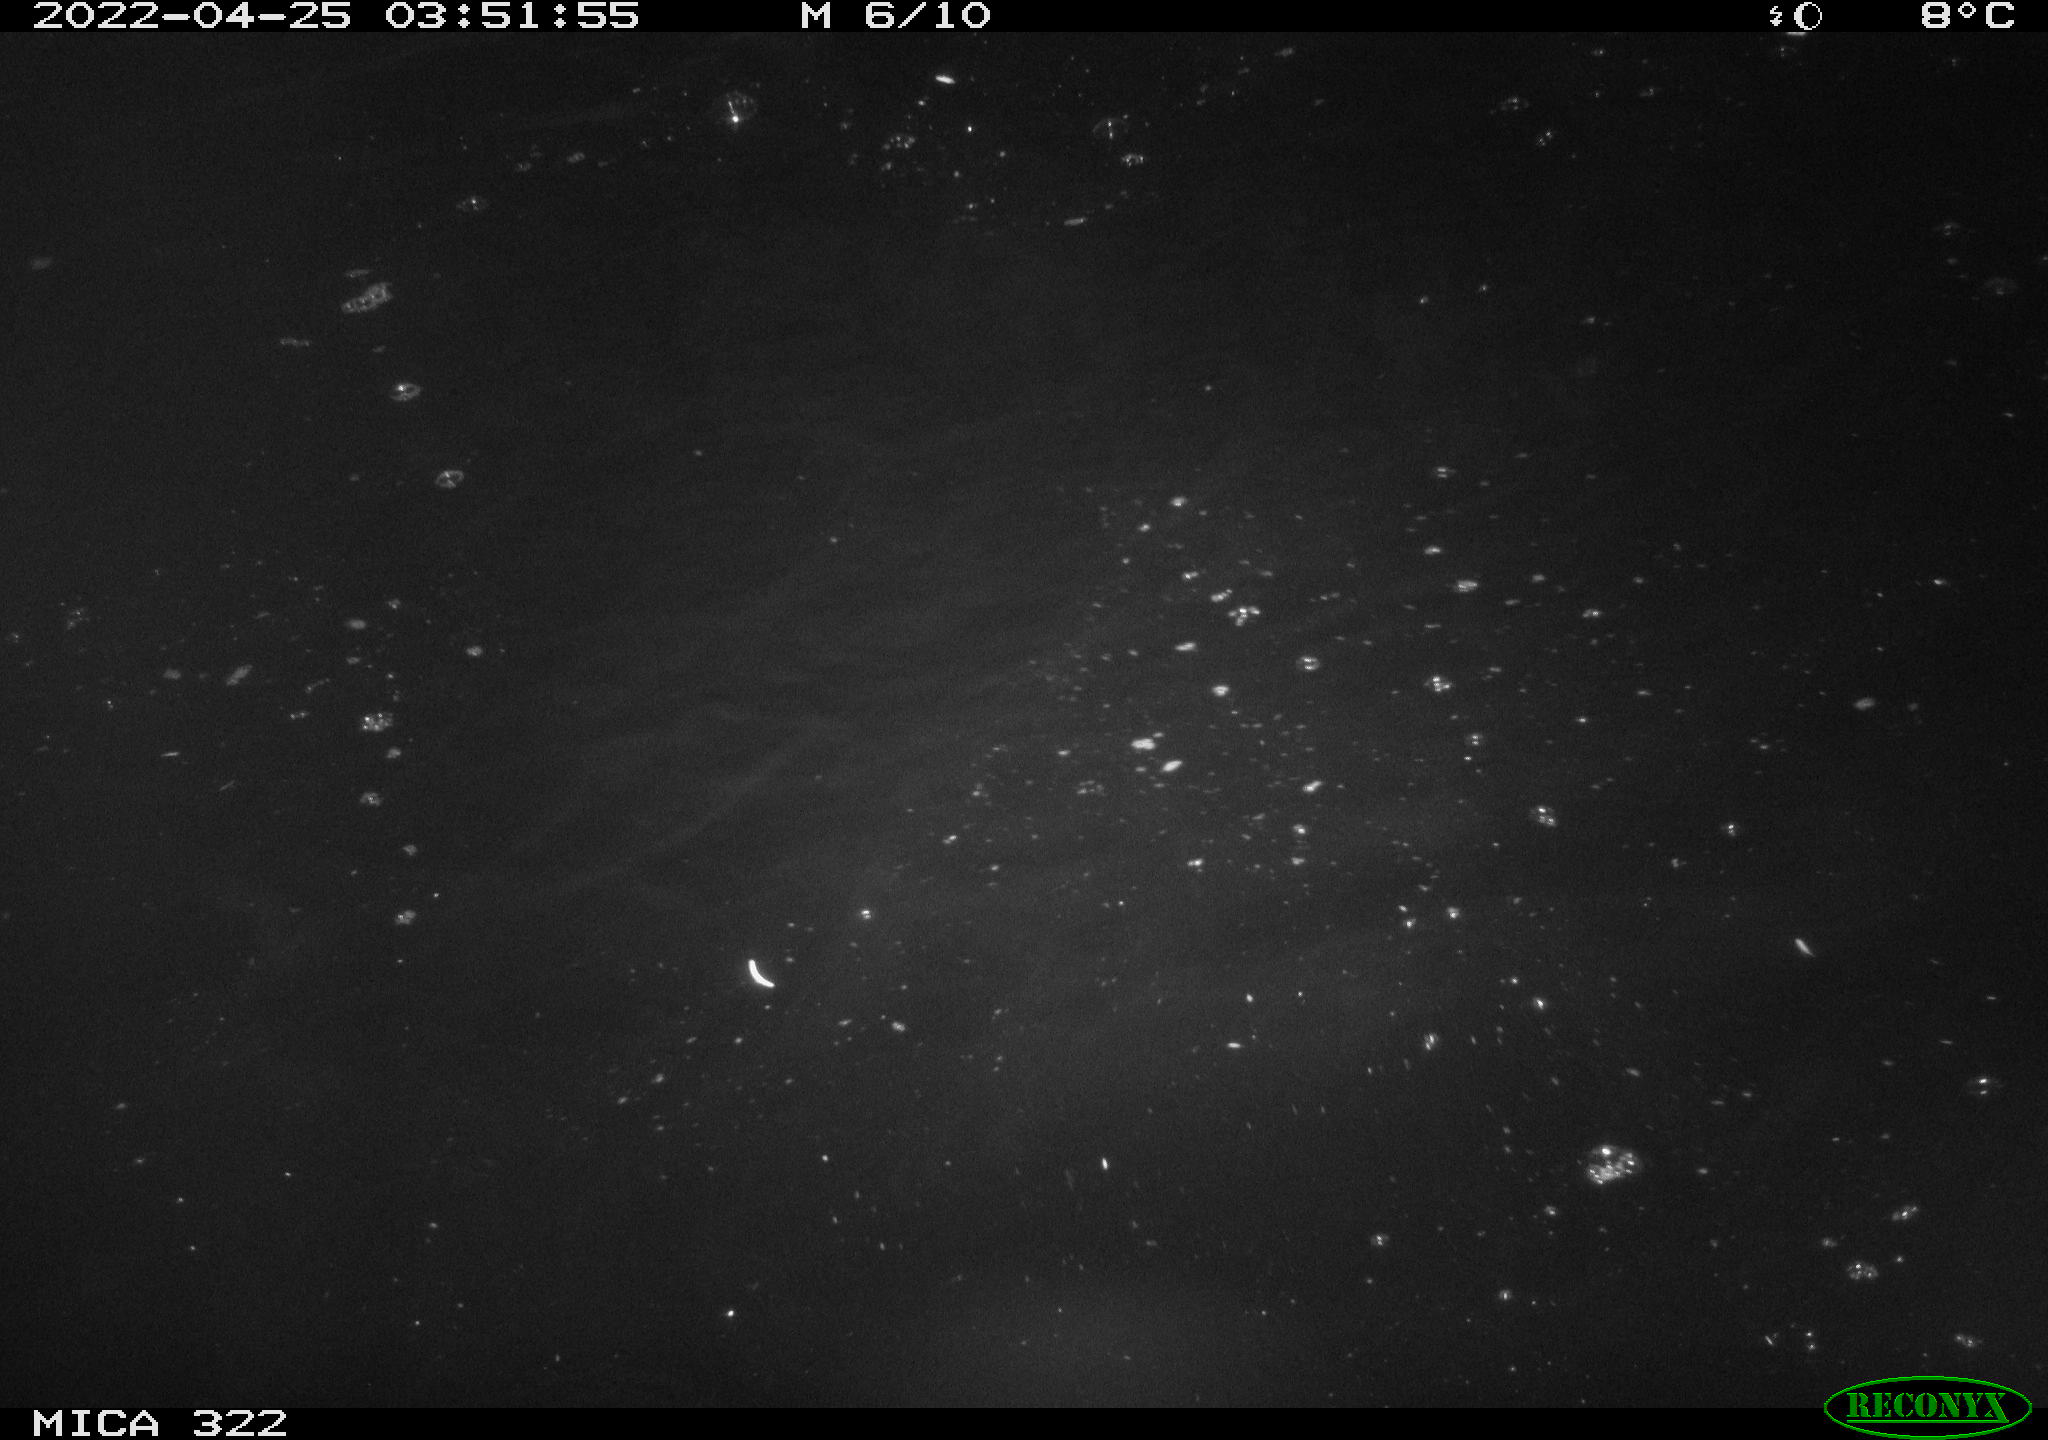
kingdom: Animalia
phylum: Chordata
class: Aves
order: Anseriformes
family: Anatidae
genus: Anas
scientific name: Anas platyrhynchos
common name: Mallard
